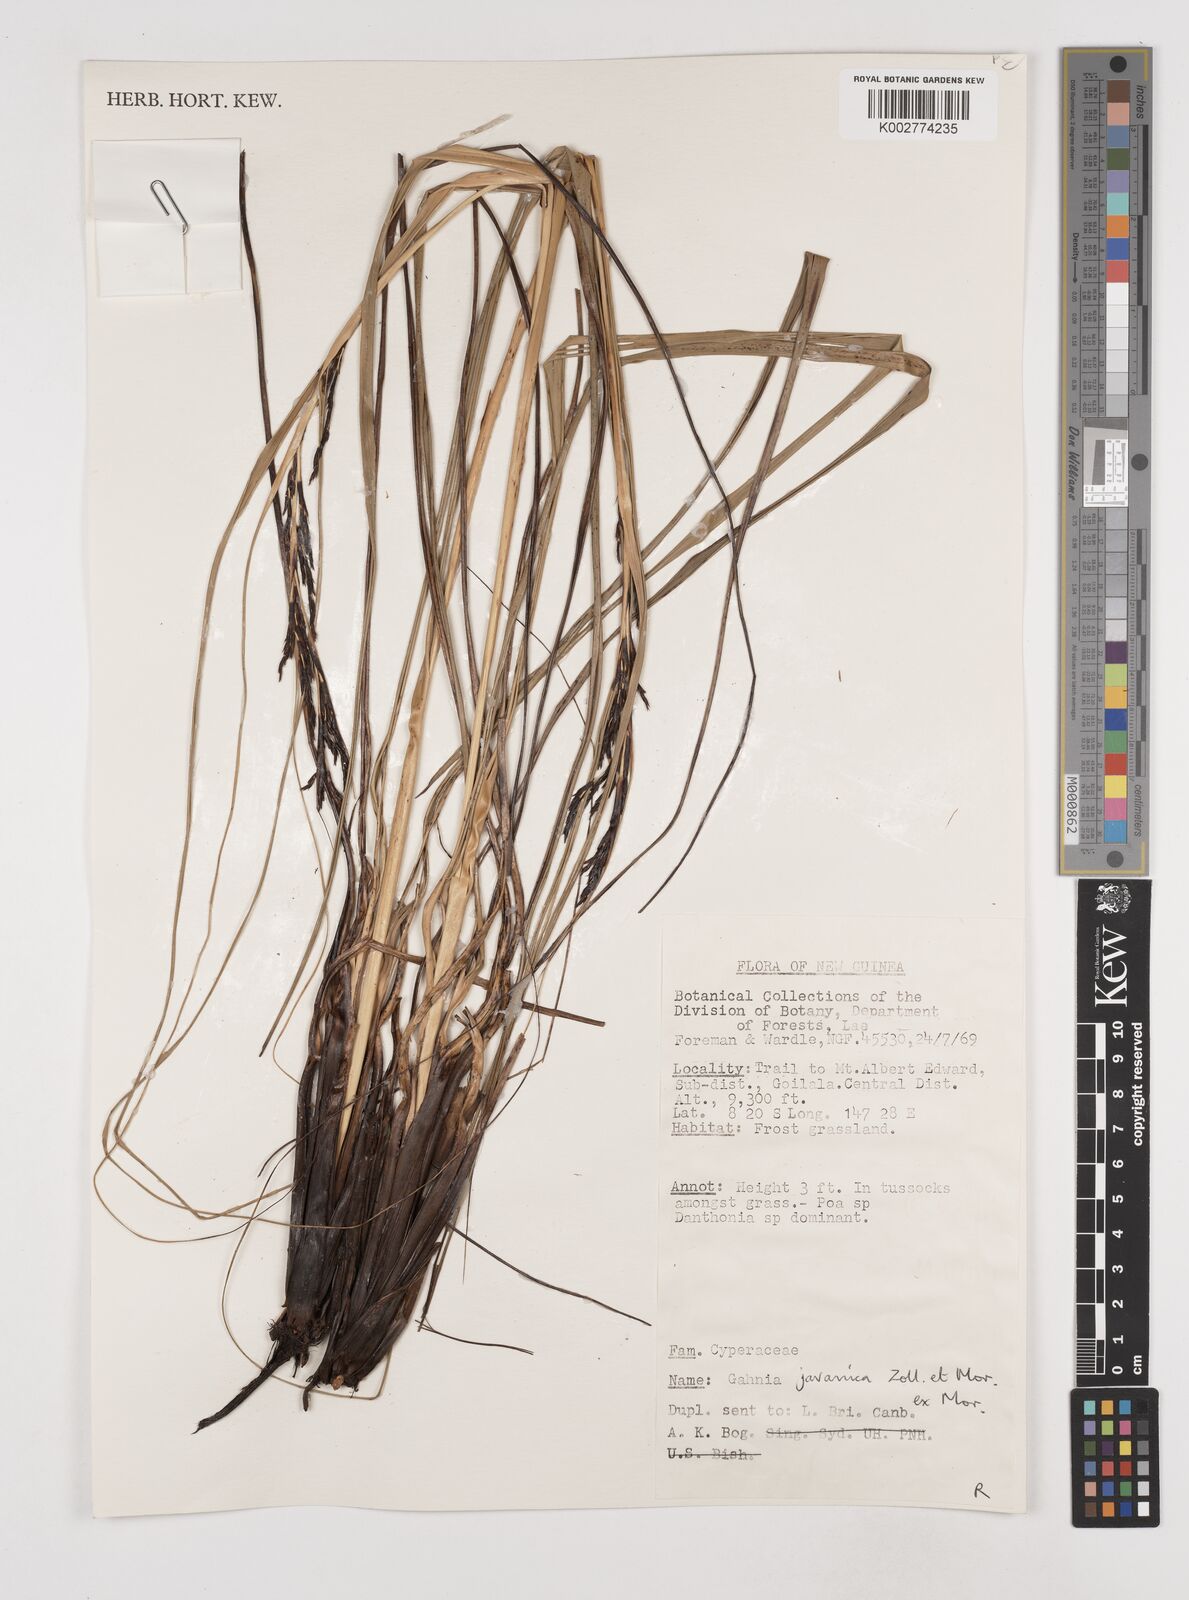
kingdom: Plantae
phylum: Tracheophyta
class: Liliopsida
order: Poales
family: Cyperaceae
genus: Gahnia
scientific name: Gahnia javanica
